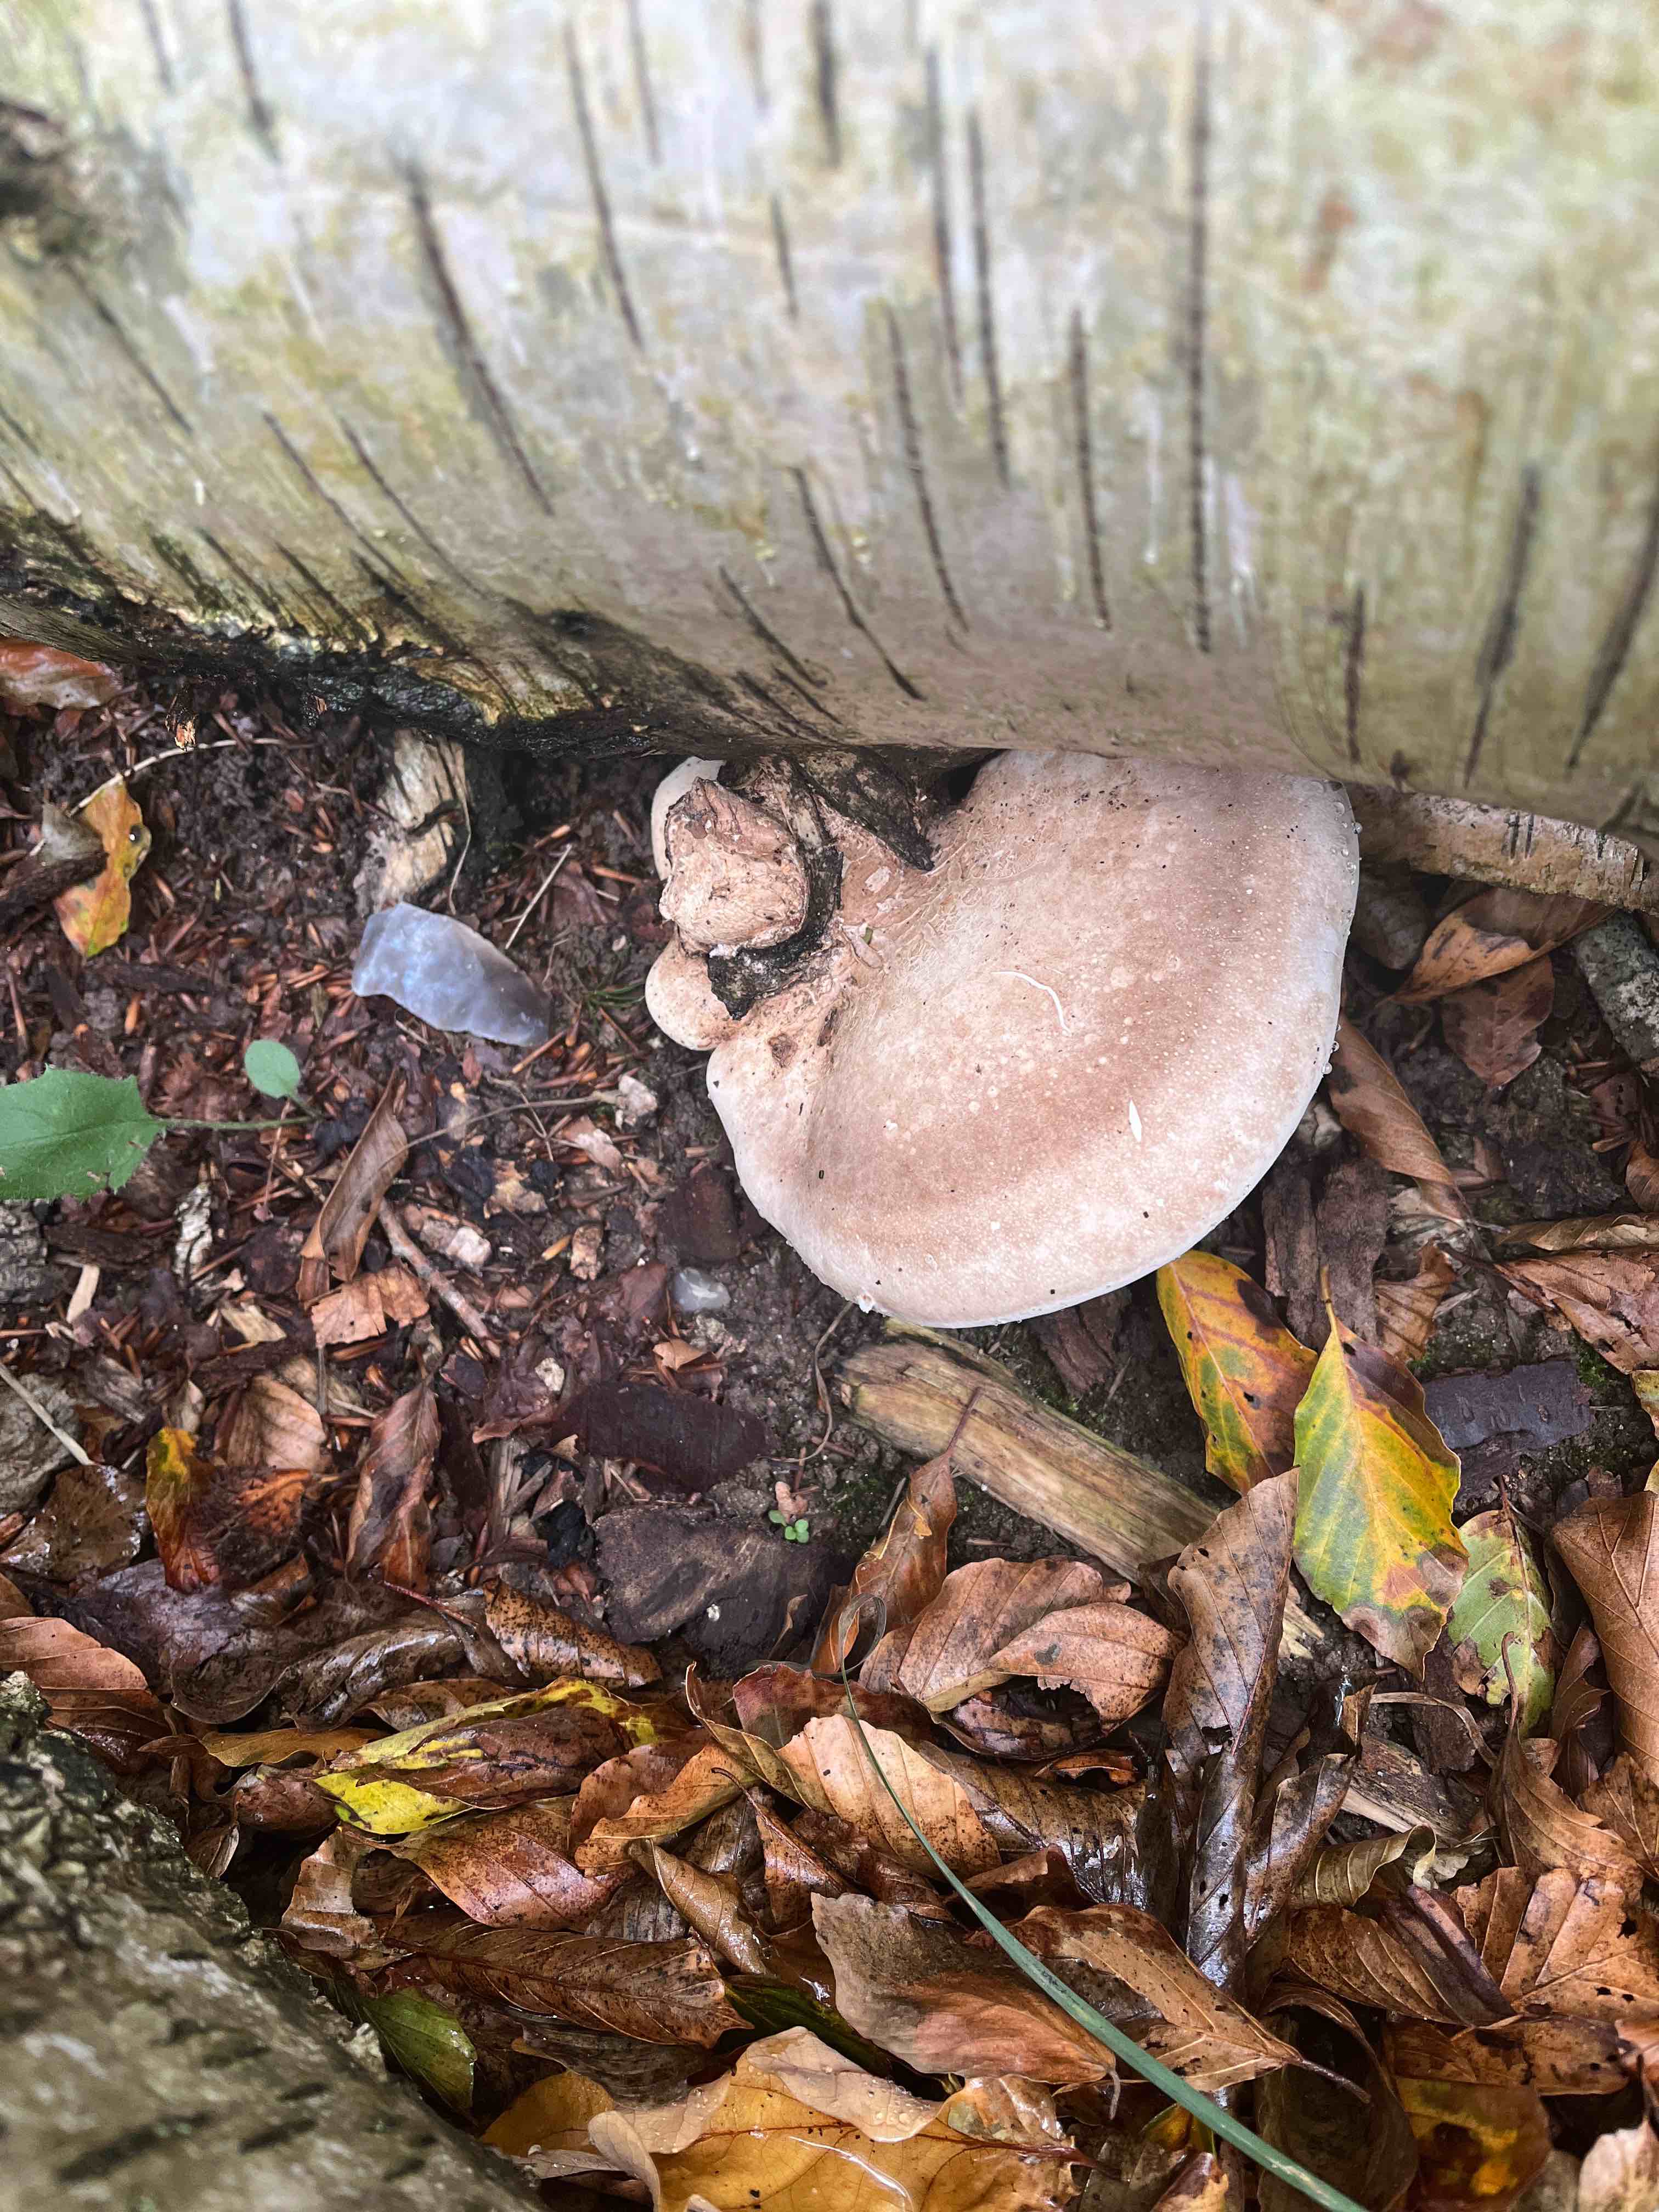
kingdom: Fungi
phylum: Basidiomycota
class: Agaricomycetes
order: Polyporales
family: Fomitopsidaceae
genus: Fomitopsis
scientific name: Fomitopsis betulina
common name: birkeporesvamp
